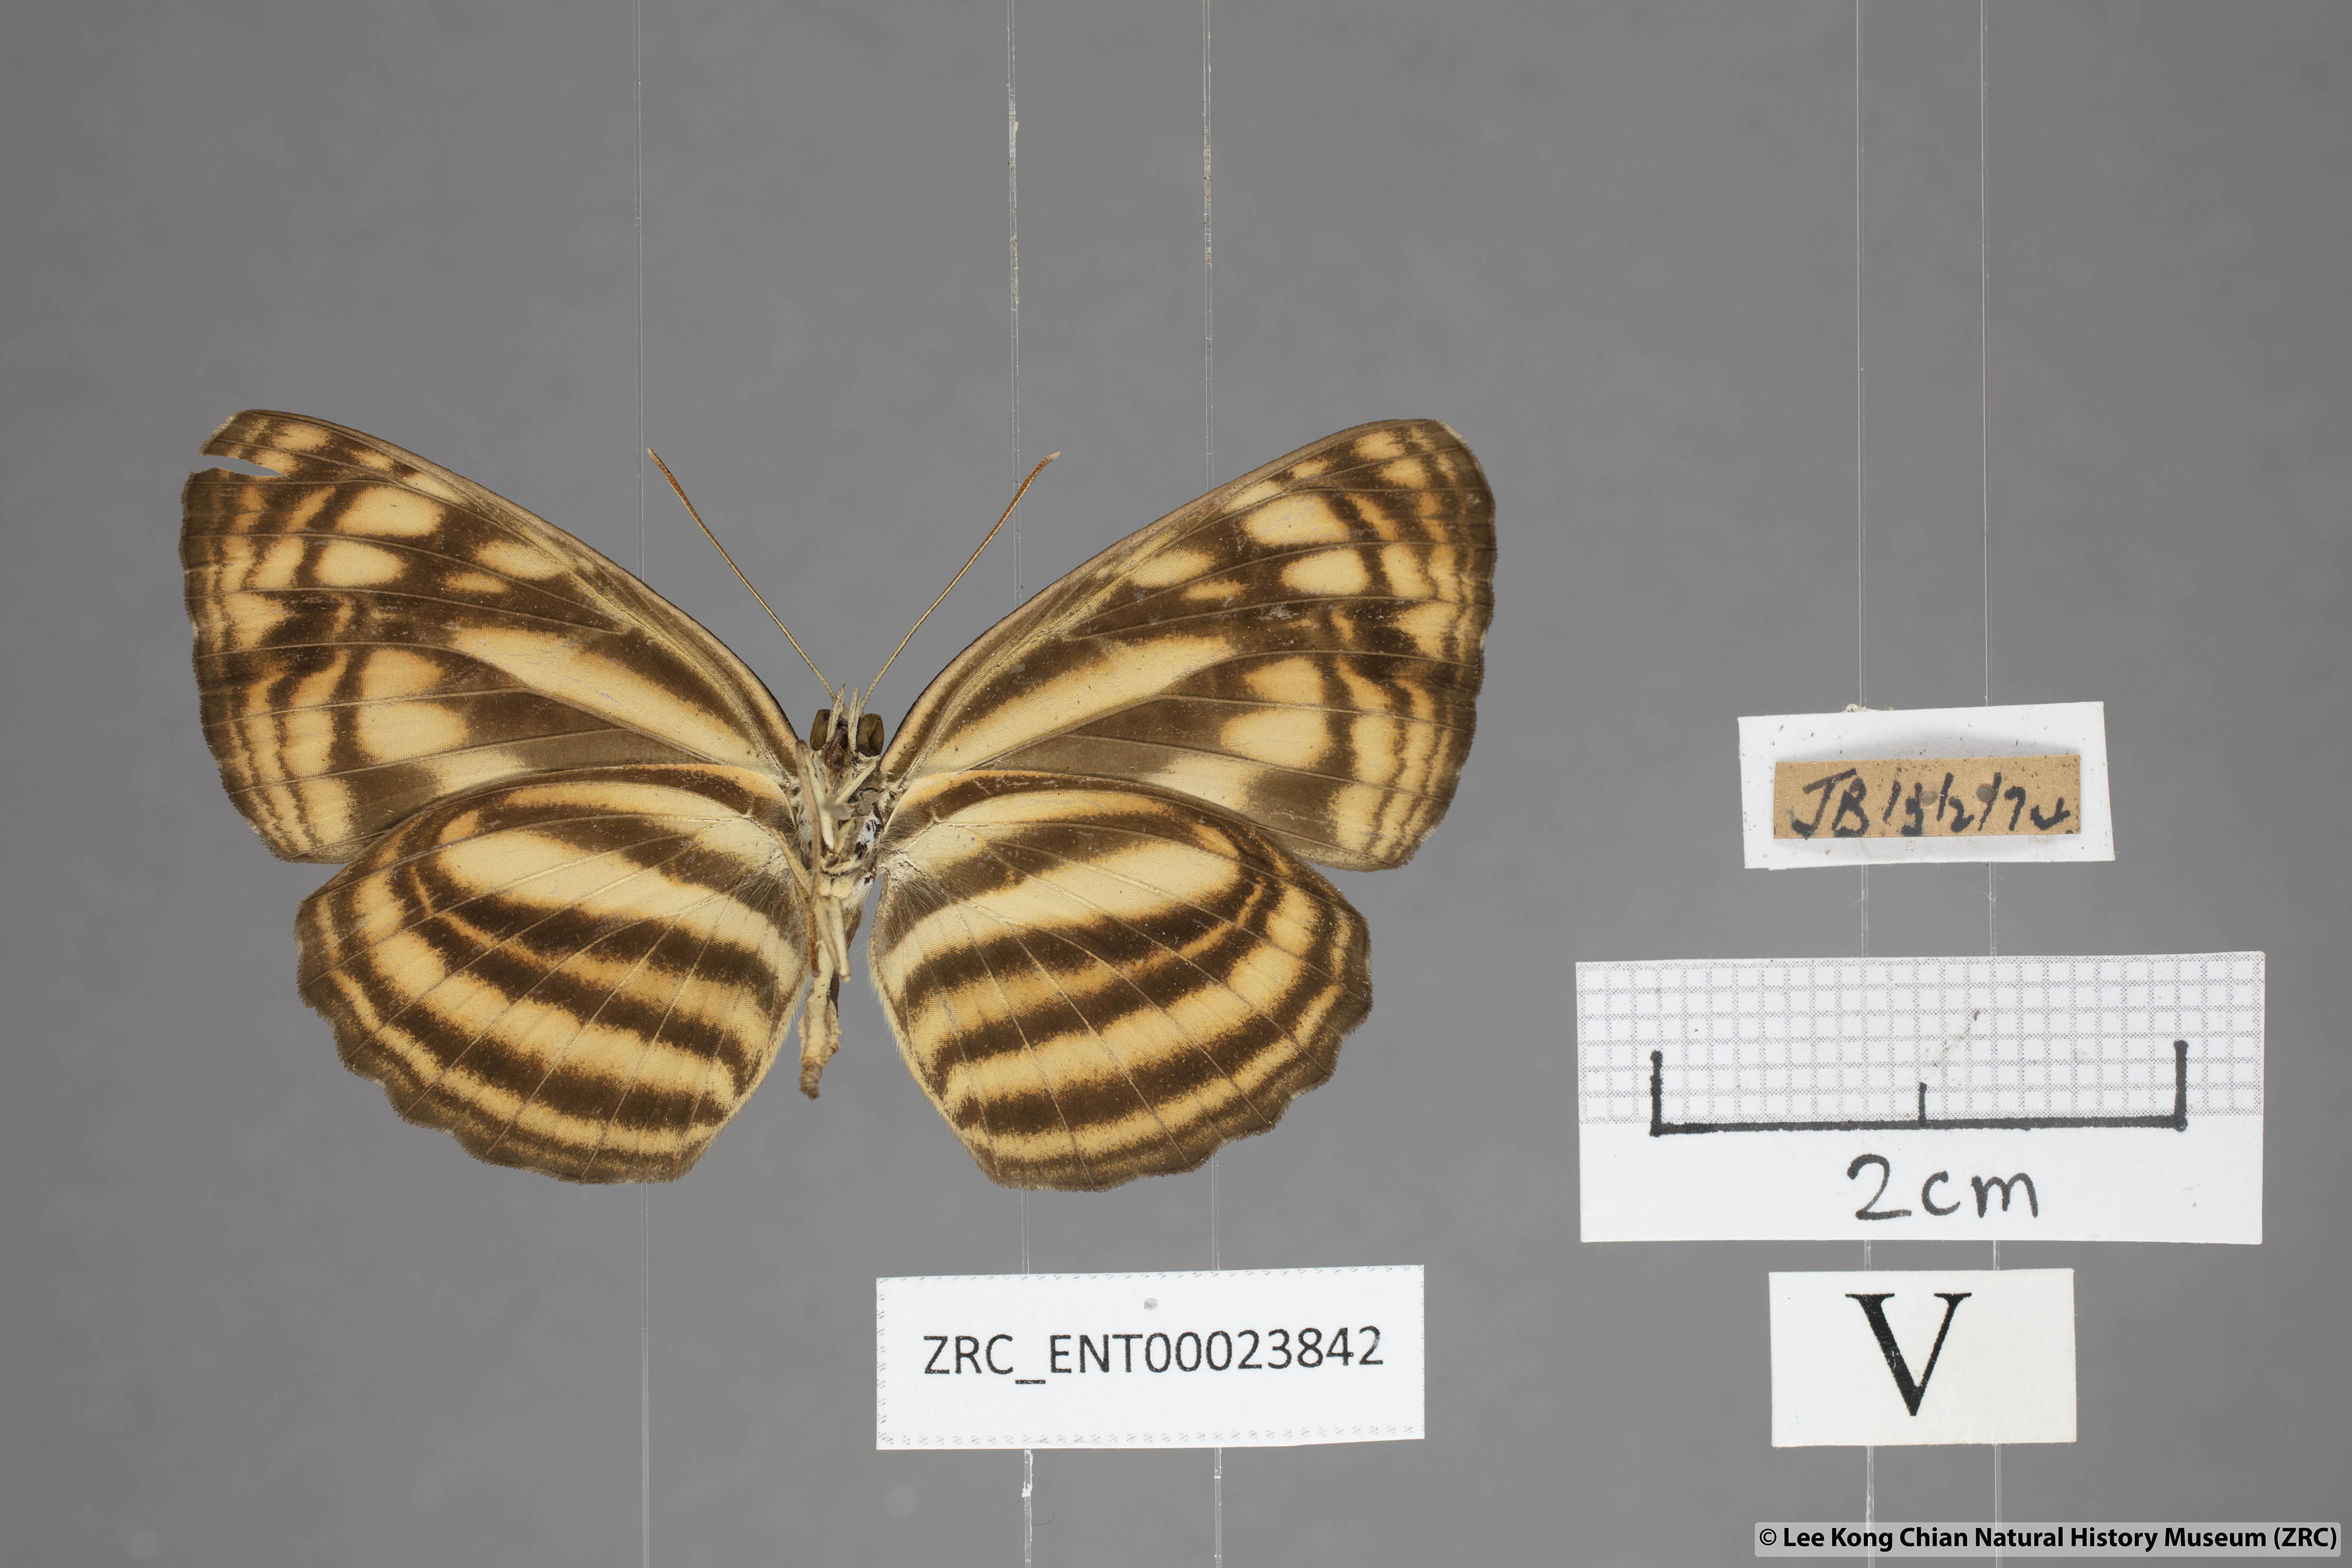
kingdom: Animalia
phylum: Arthropoda
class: Insecta
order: Lepidoptera
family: Nymphalidae
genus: Lasippa
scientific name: Lasippa monata
